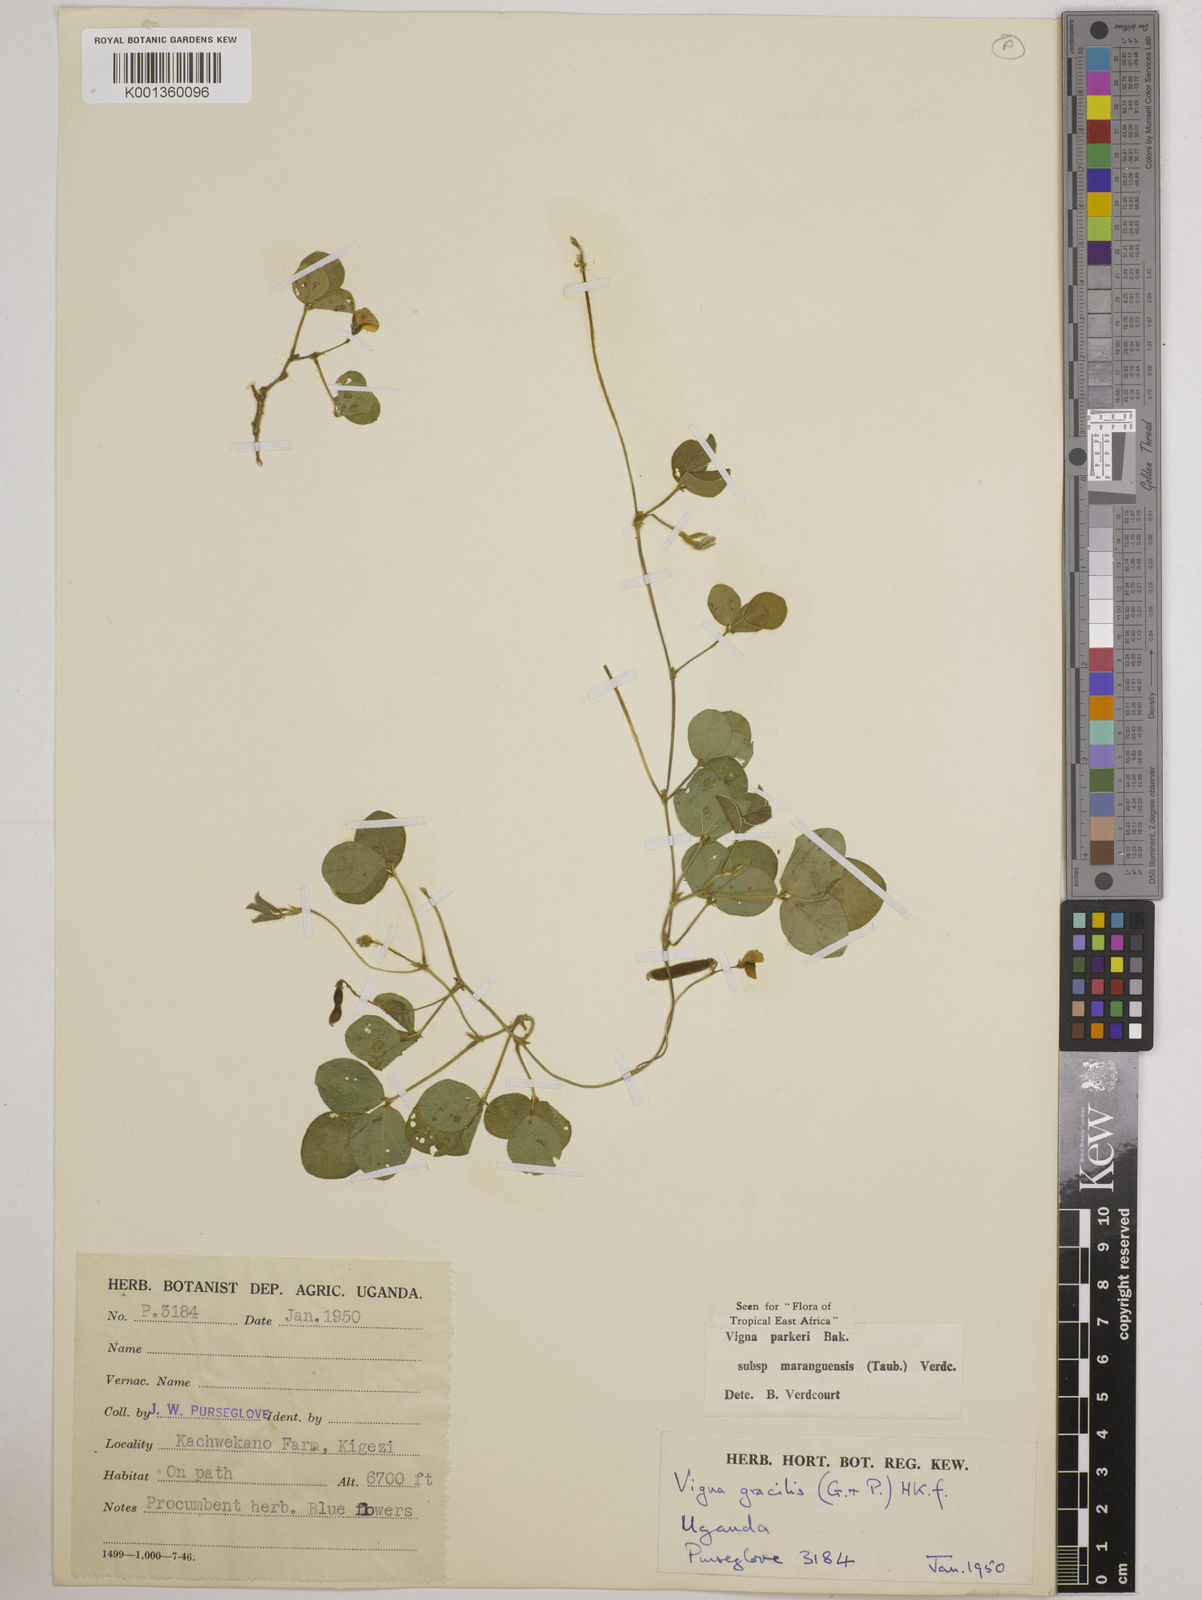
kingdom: Plantae
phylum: Tracheophyta
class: Magnoliopsida
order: Fabales
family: Fabaceae
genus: Vigna
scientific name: Vigna parkeri
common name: Creeping vigna
